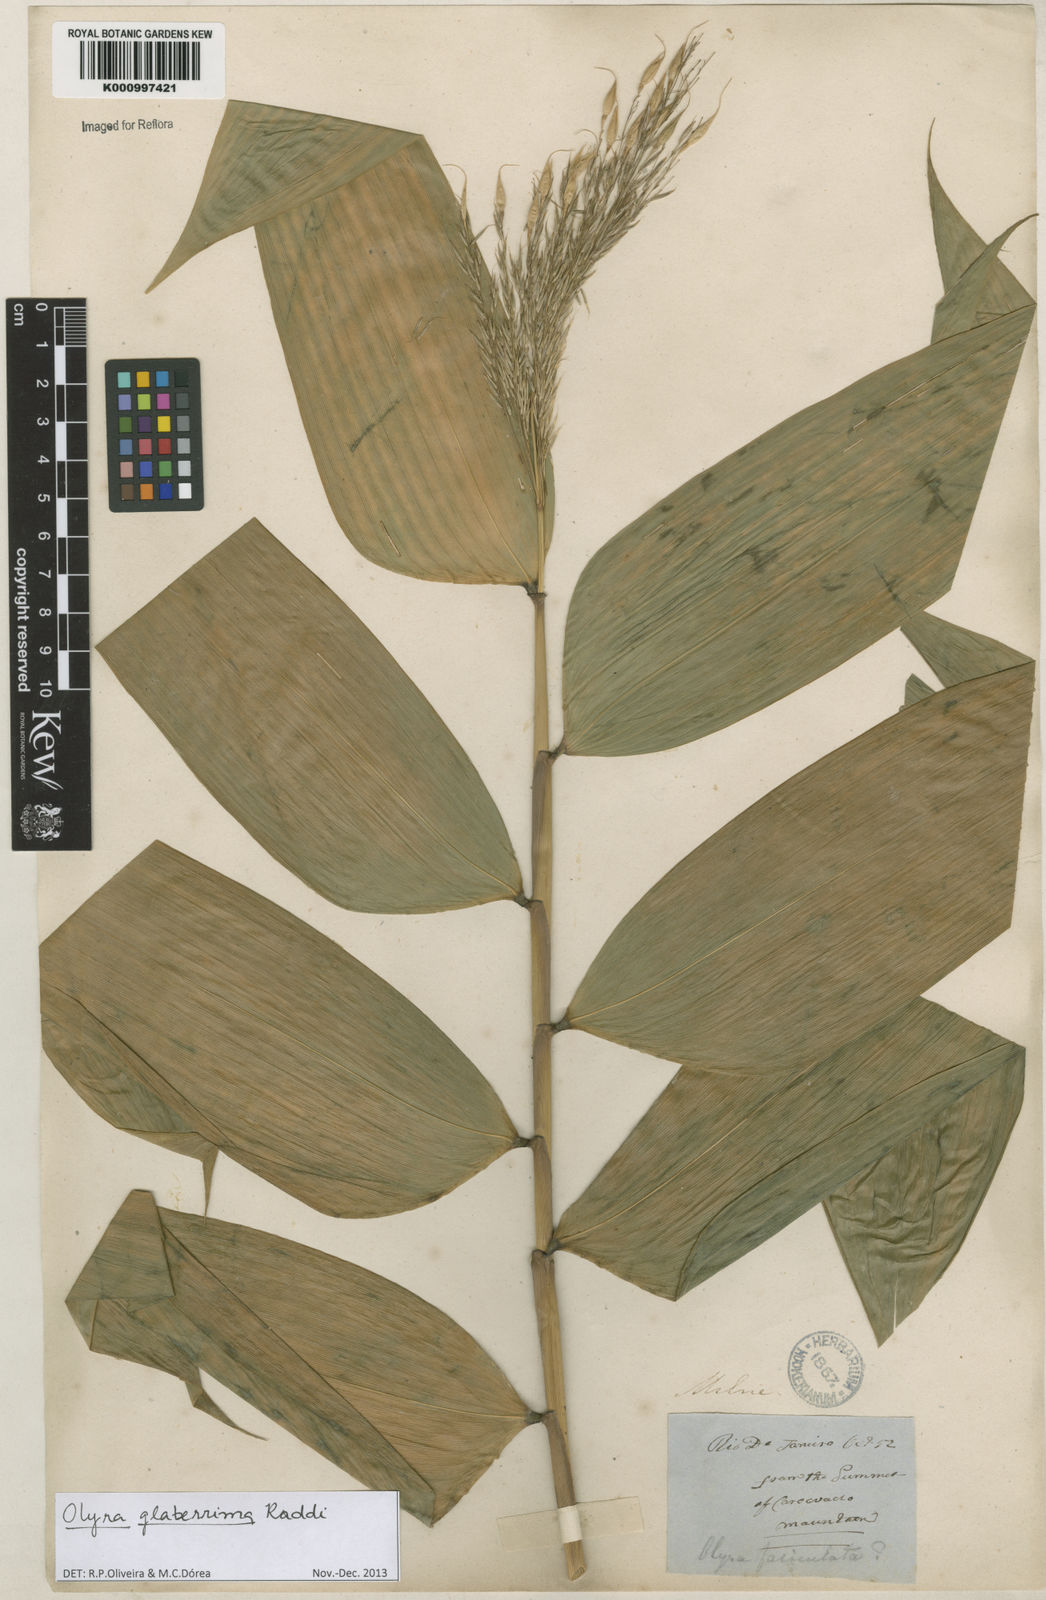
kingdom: Plantae
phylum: Tracheophyta
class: Liliopsida
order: Poales
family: Poaceae
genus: Olyra
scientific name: Olyra glaberrima
